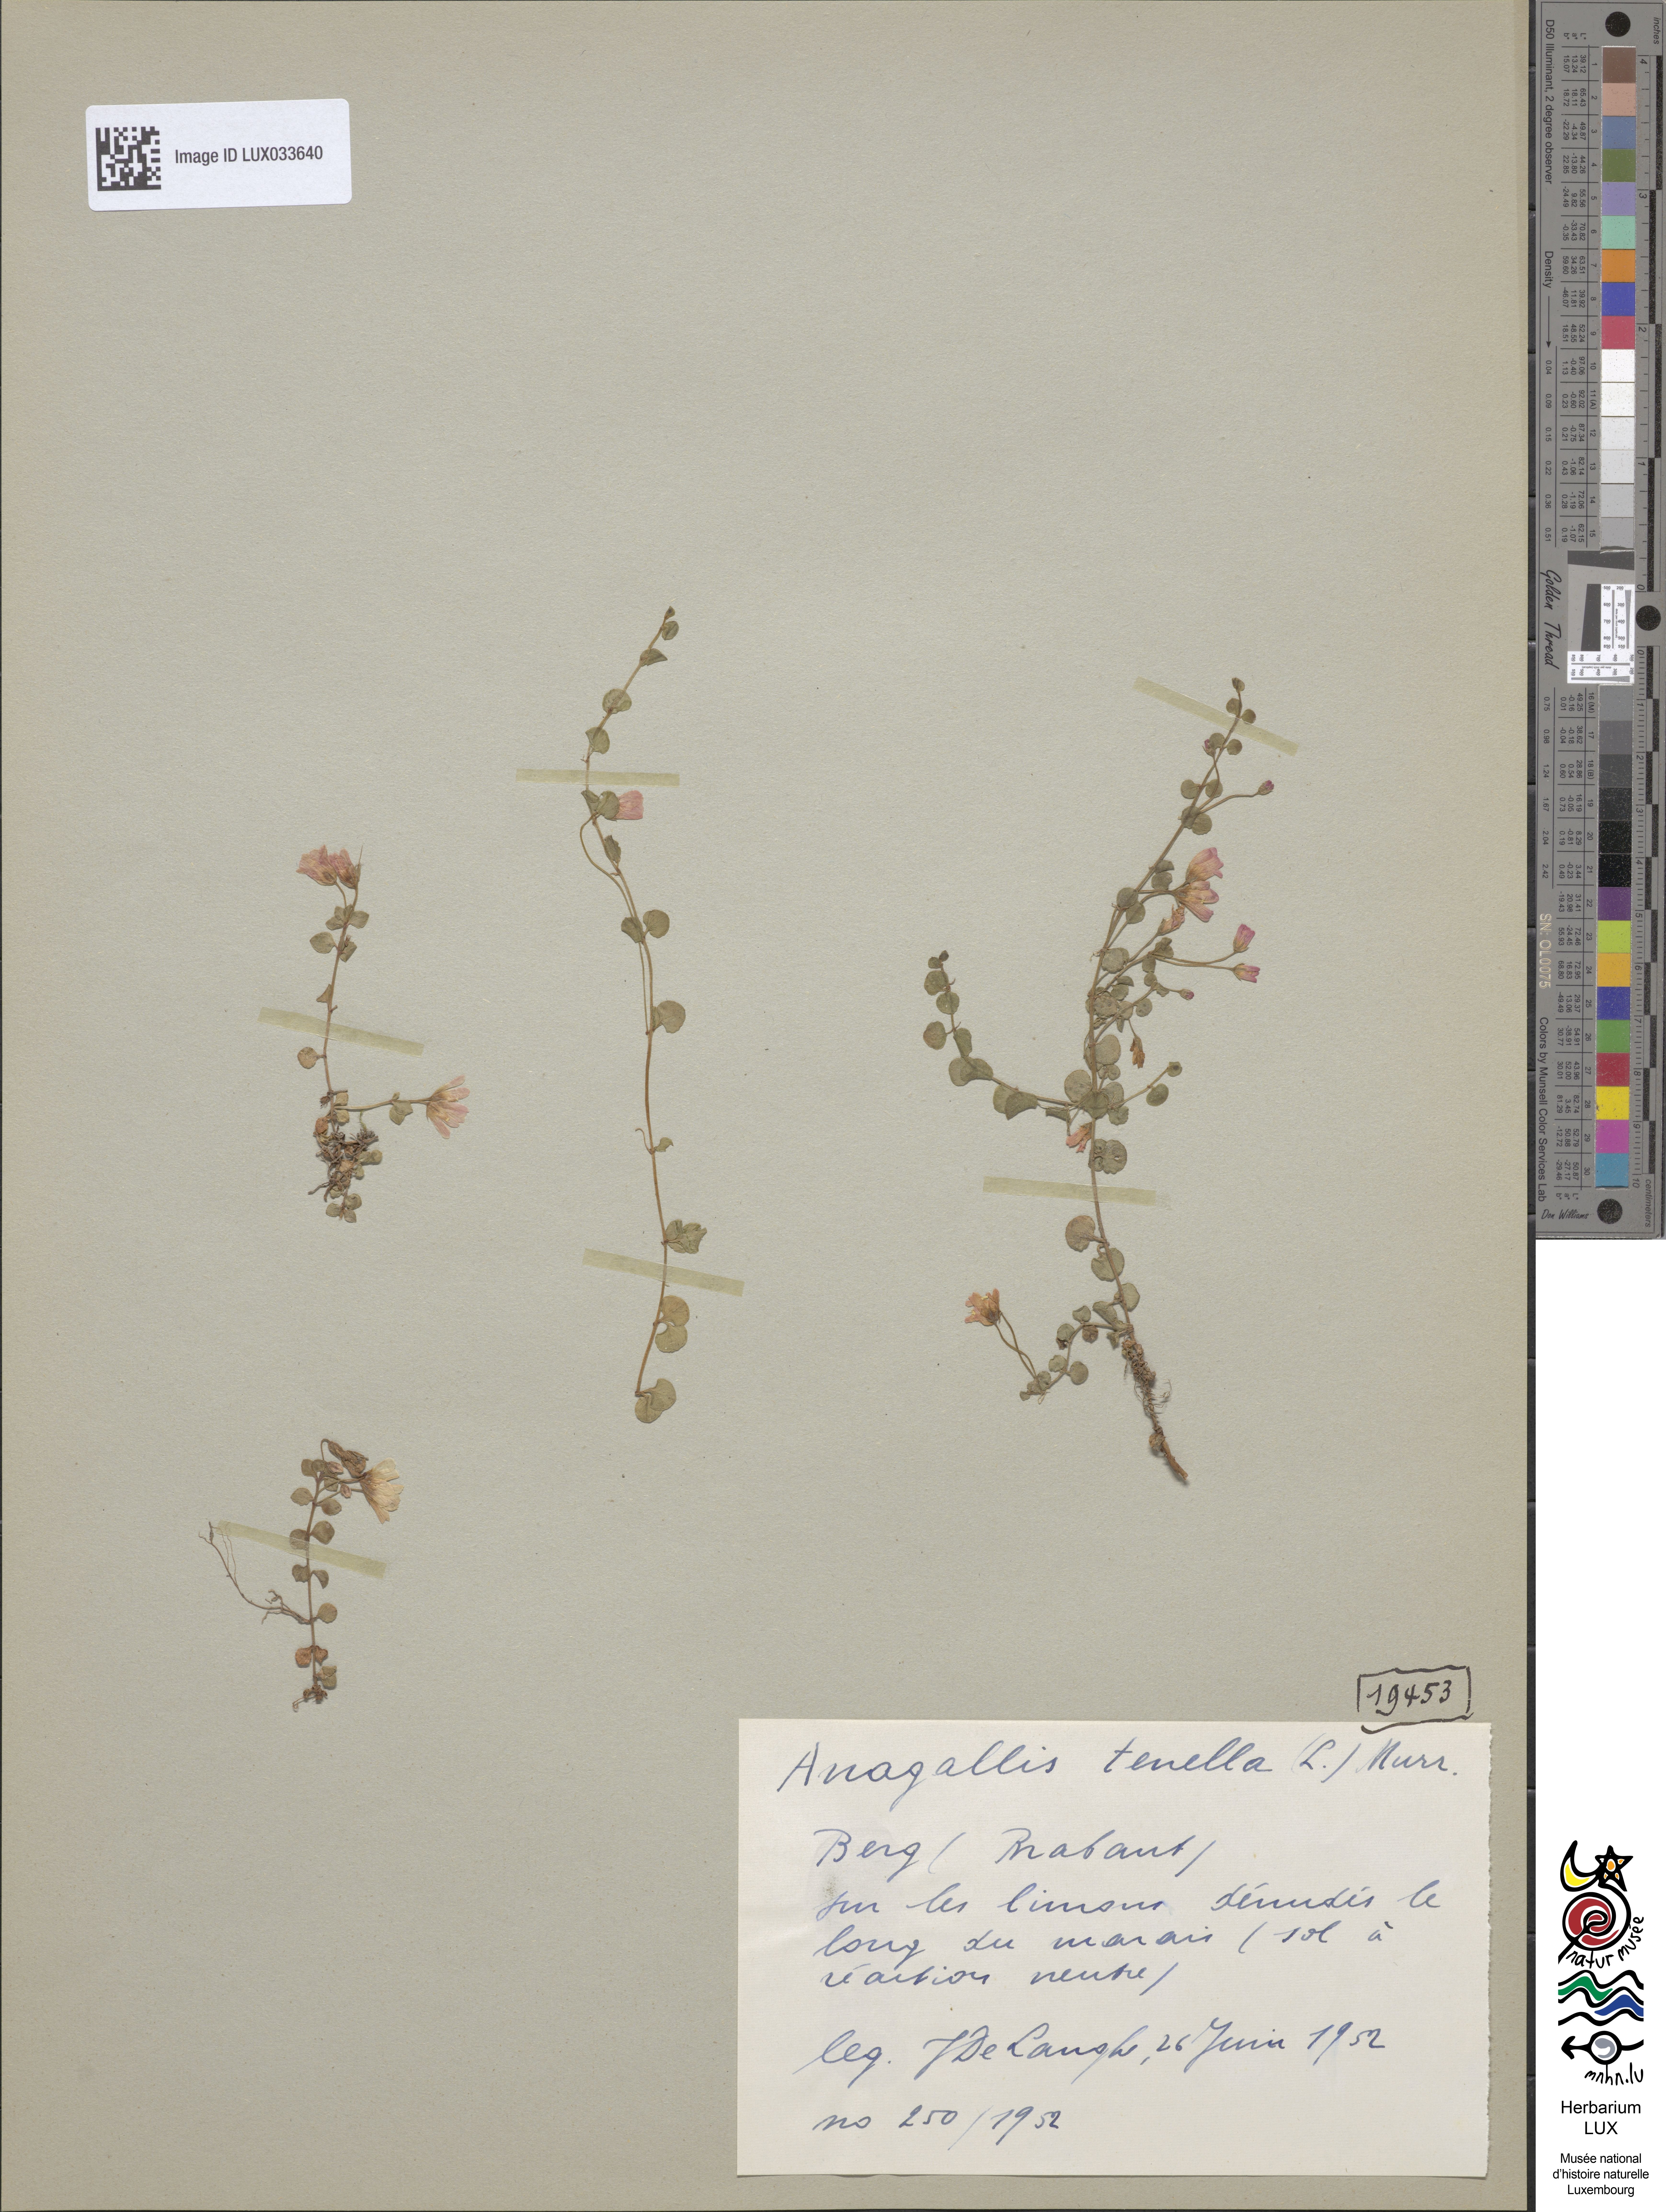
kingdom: Plantae
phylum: Tracheophyta
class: Magnoliopsida
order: Ericales
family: Primulaceae
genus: Lysimachia
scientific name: Lysimachia tenella
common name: European bog pimpernel
